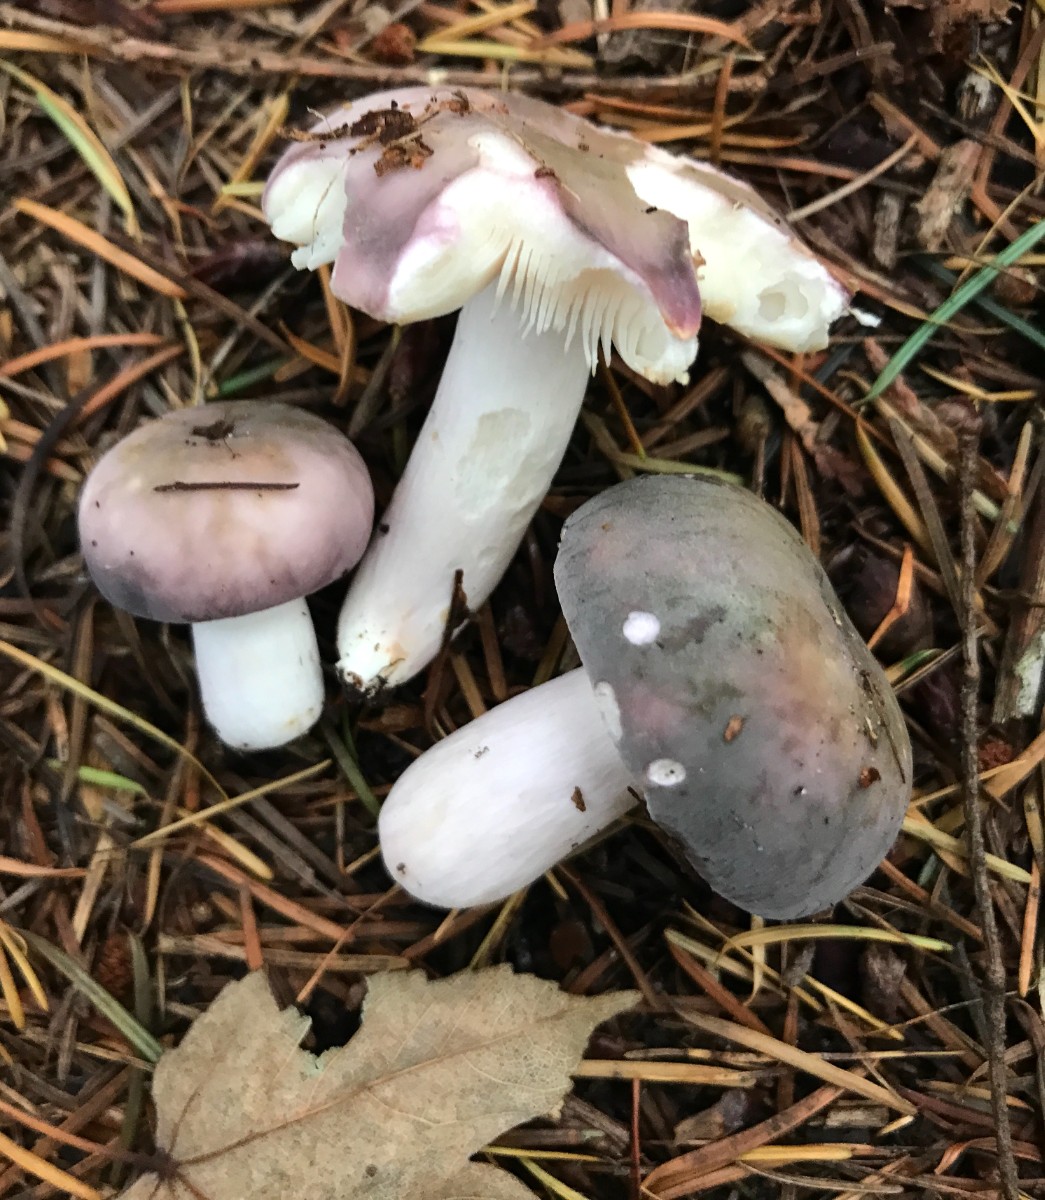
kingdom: Fungi
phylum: Basidiomycota
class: Agaricomycetes
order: Russulales
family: Russulaceae
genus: Russula
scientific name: Russula cyanoxantha
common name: broget skørhat
